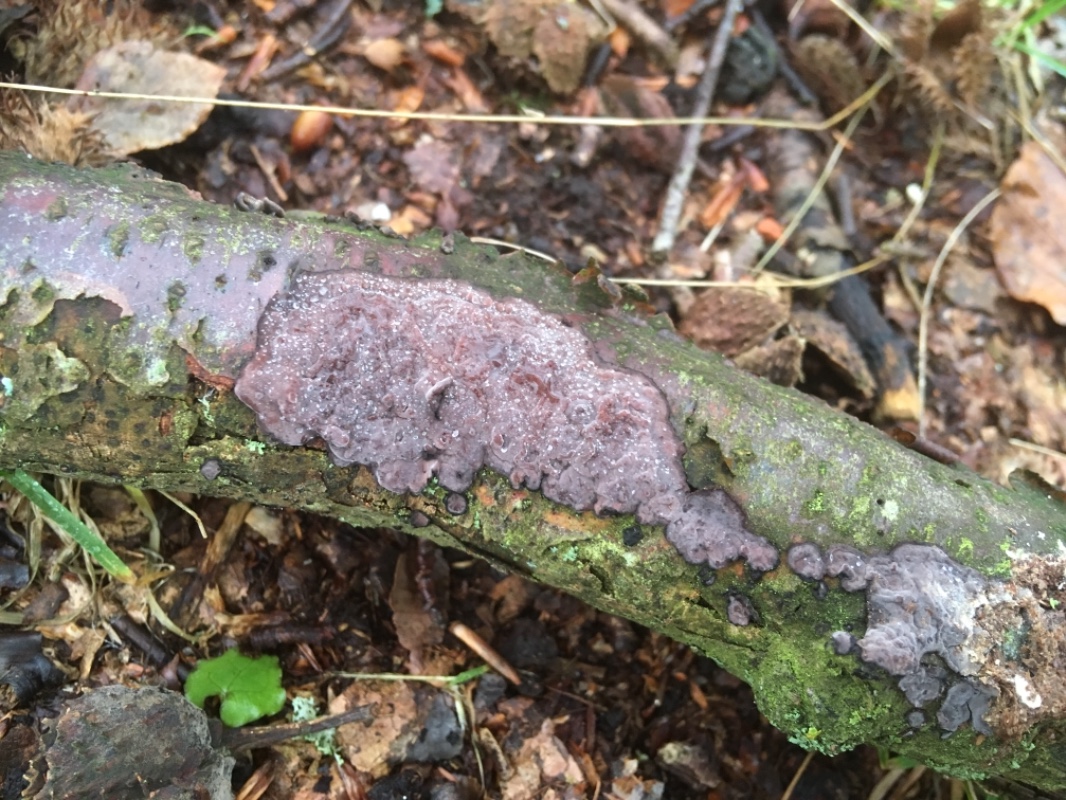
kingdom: Fungi
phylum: Basidiomycota
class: Agaricomycetes
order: Russulales
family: Peniophoraceae
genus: Peniophora
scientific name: Peniophora quercina
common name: ege-voksskind
